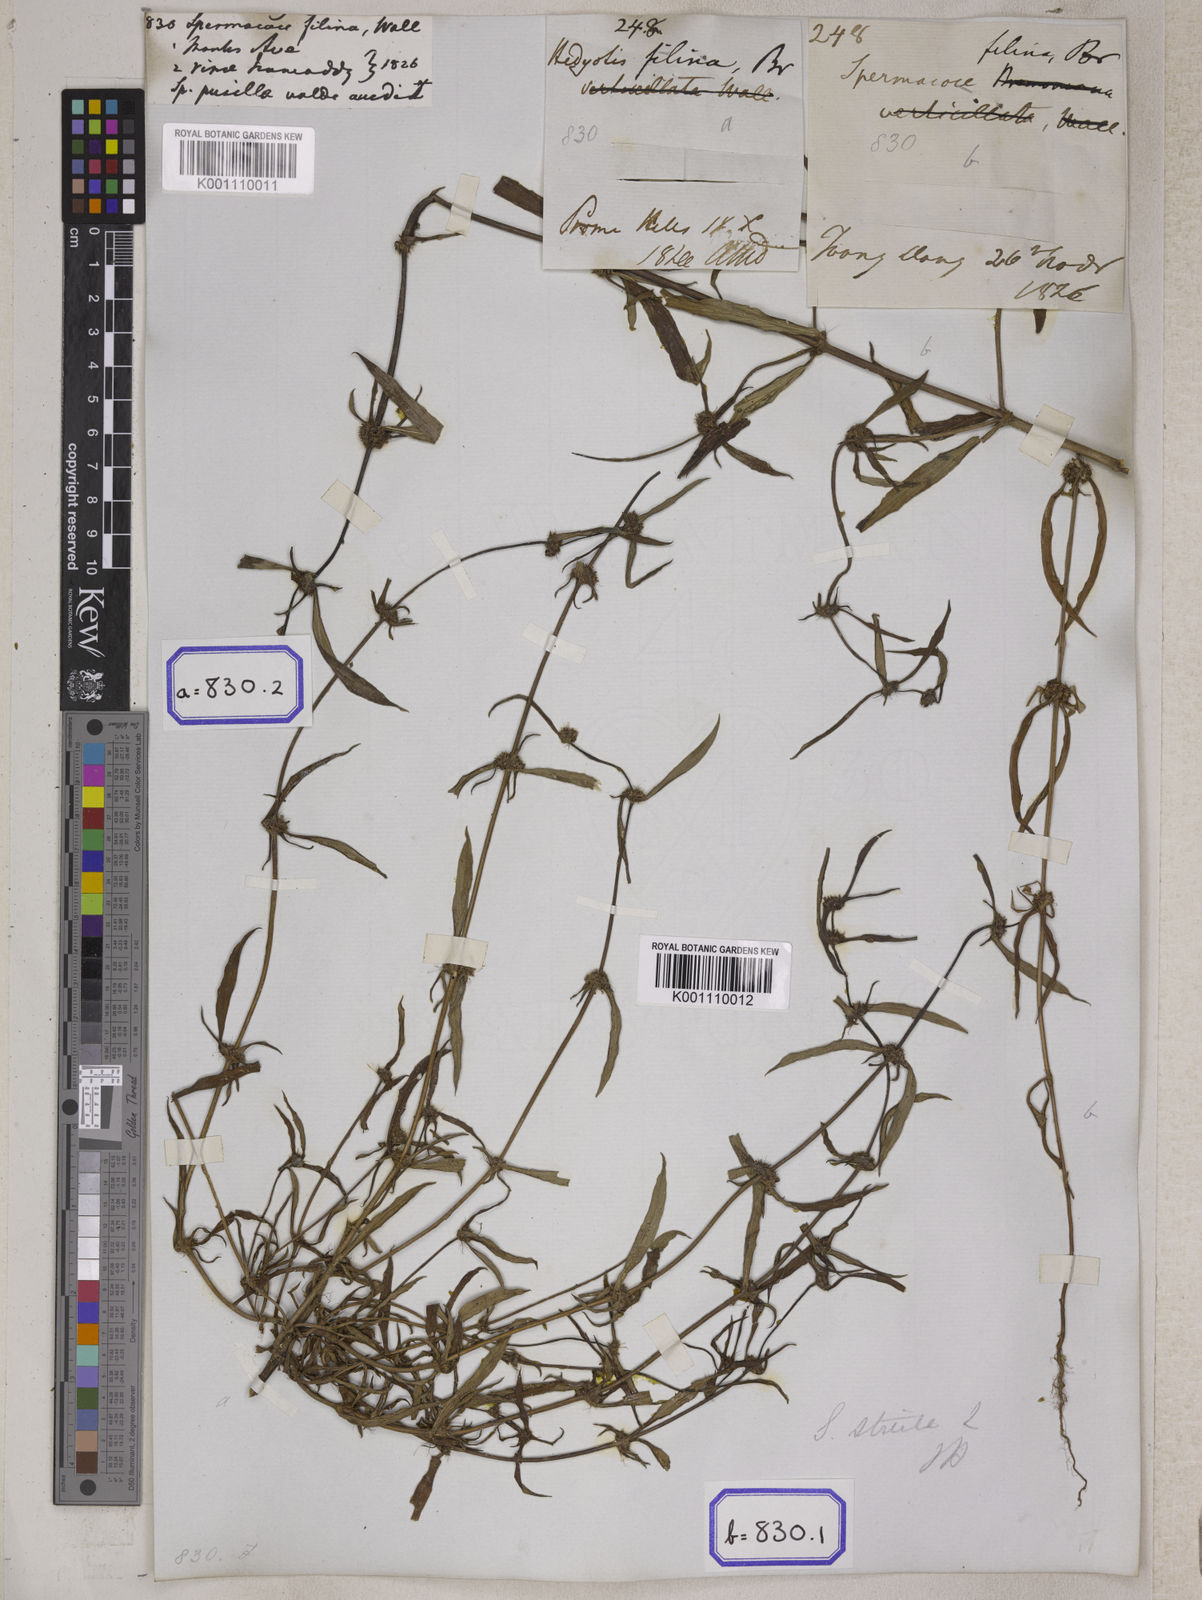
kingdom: Plantae
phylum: Tracheophyta
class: Magnoliopsida
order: Gentianales
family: Rubiaceae
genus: Spermacoce
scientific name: Spermacoce pusilla
